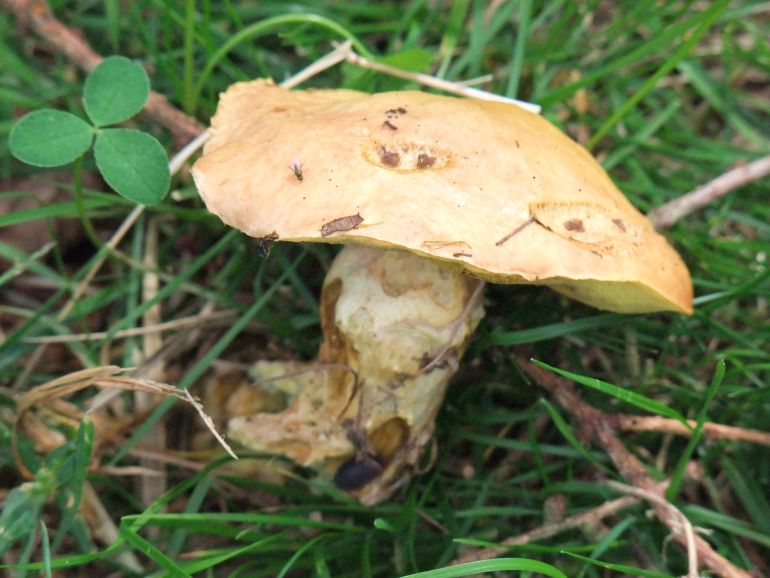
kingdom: Fungi
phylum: Basidiomycota
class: Agaricomycetes
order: Boletales
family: Suillaceae
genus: Suillus
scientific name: Suillus grevillei
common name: lærke-slimrørhat
